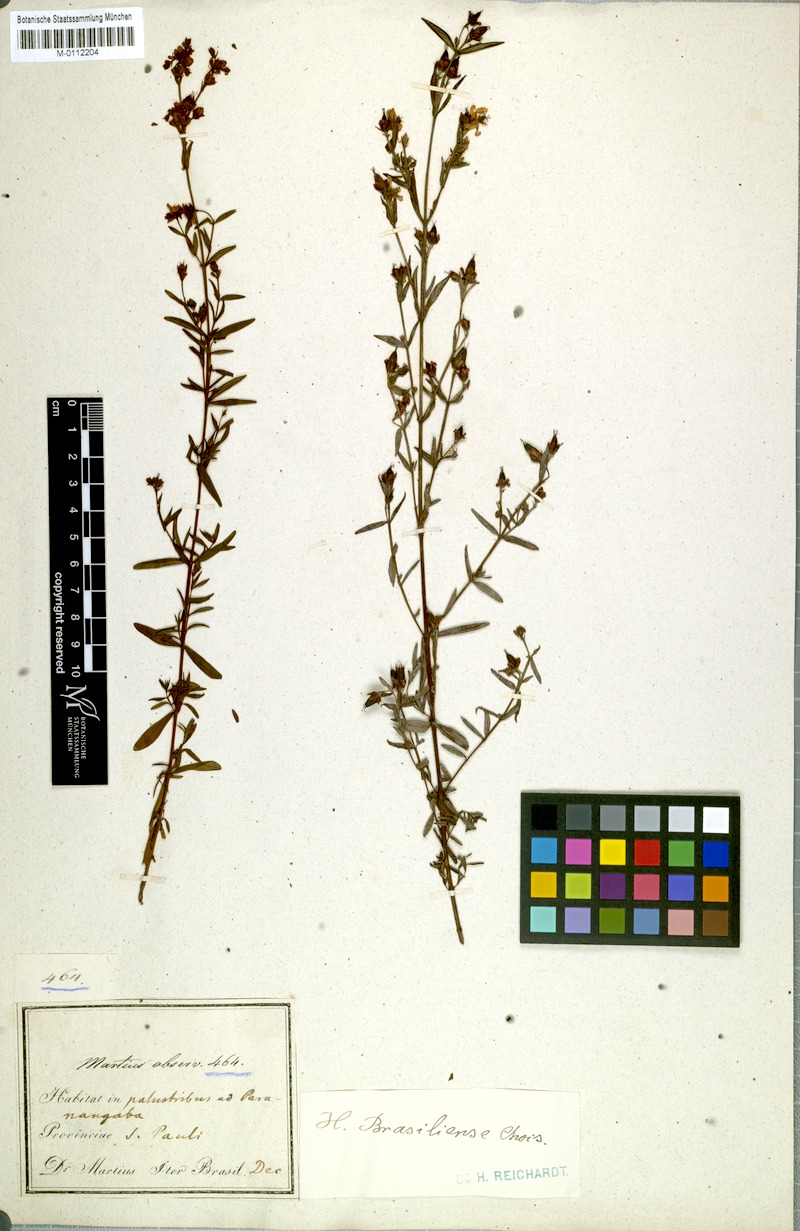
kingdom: Plantae
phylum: Tracheophyta
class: Magnoliopsida
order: Malpighiales
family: Hypericaceae
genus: Hypericum
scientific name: Hypericum brasiliense
